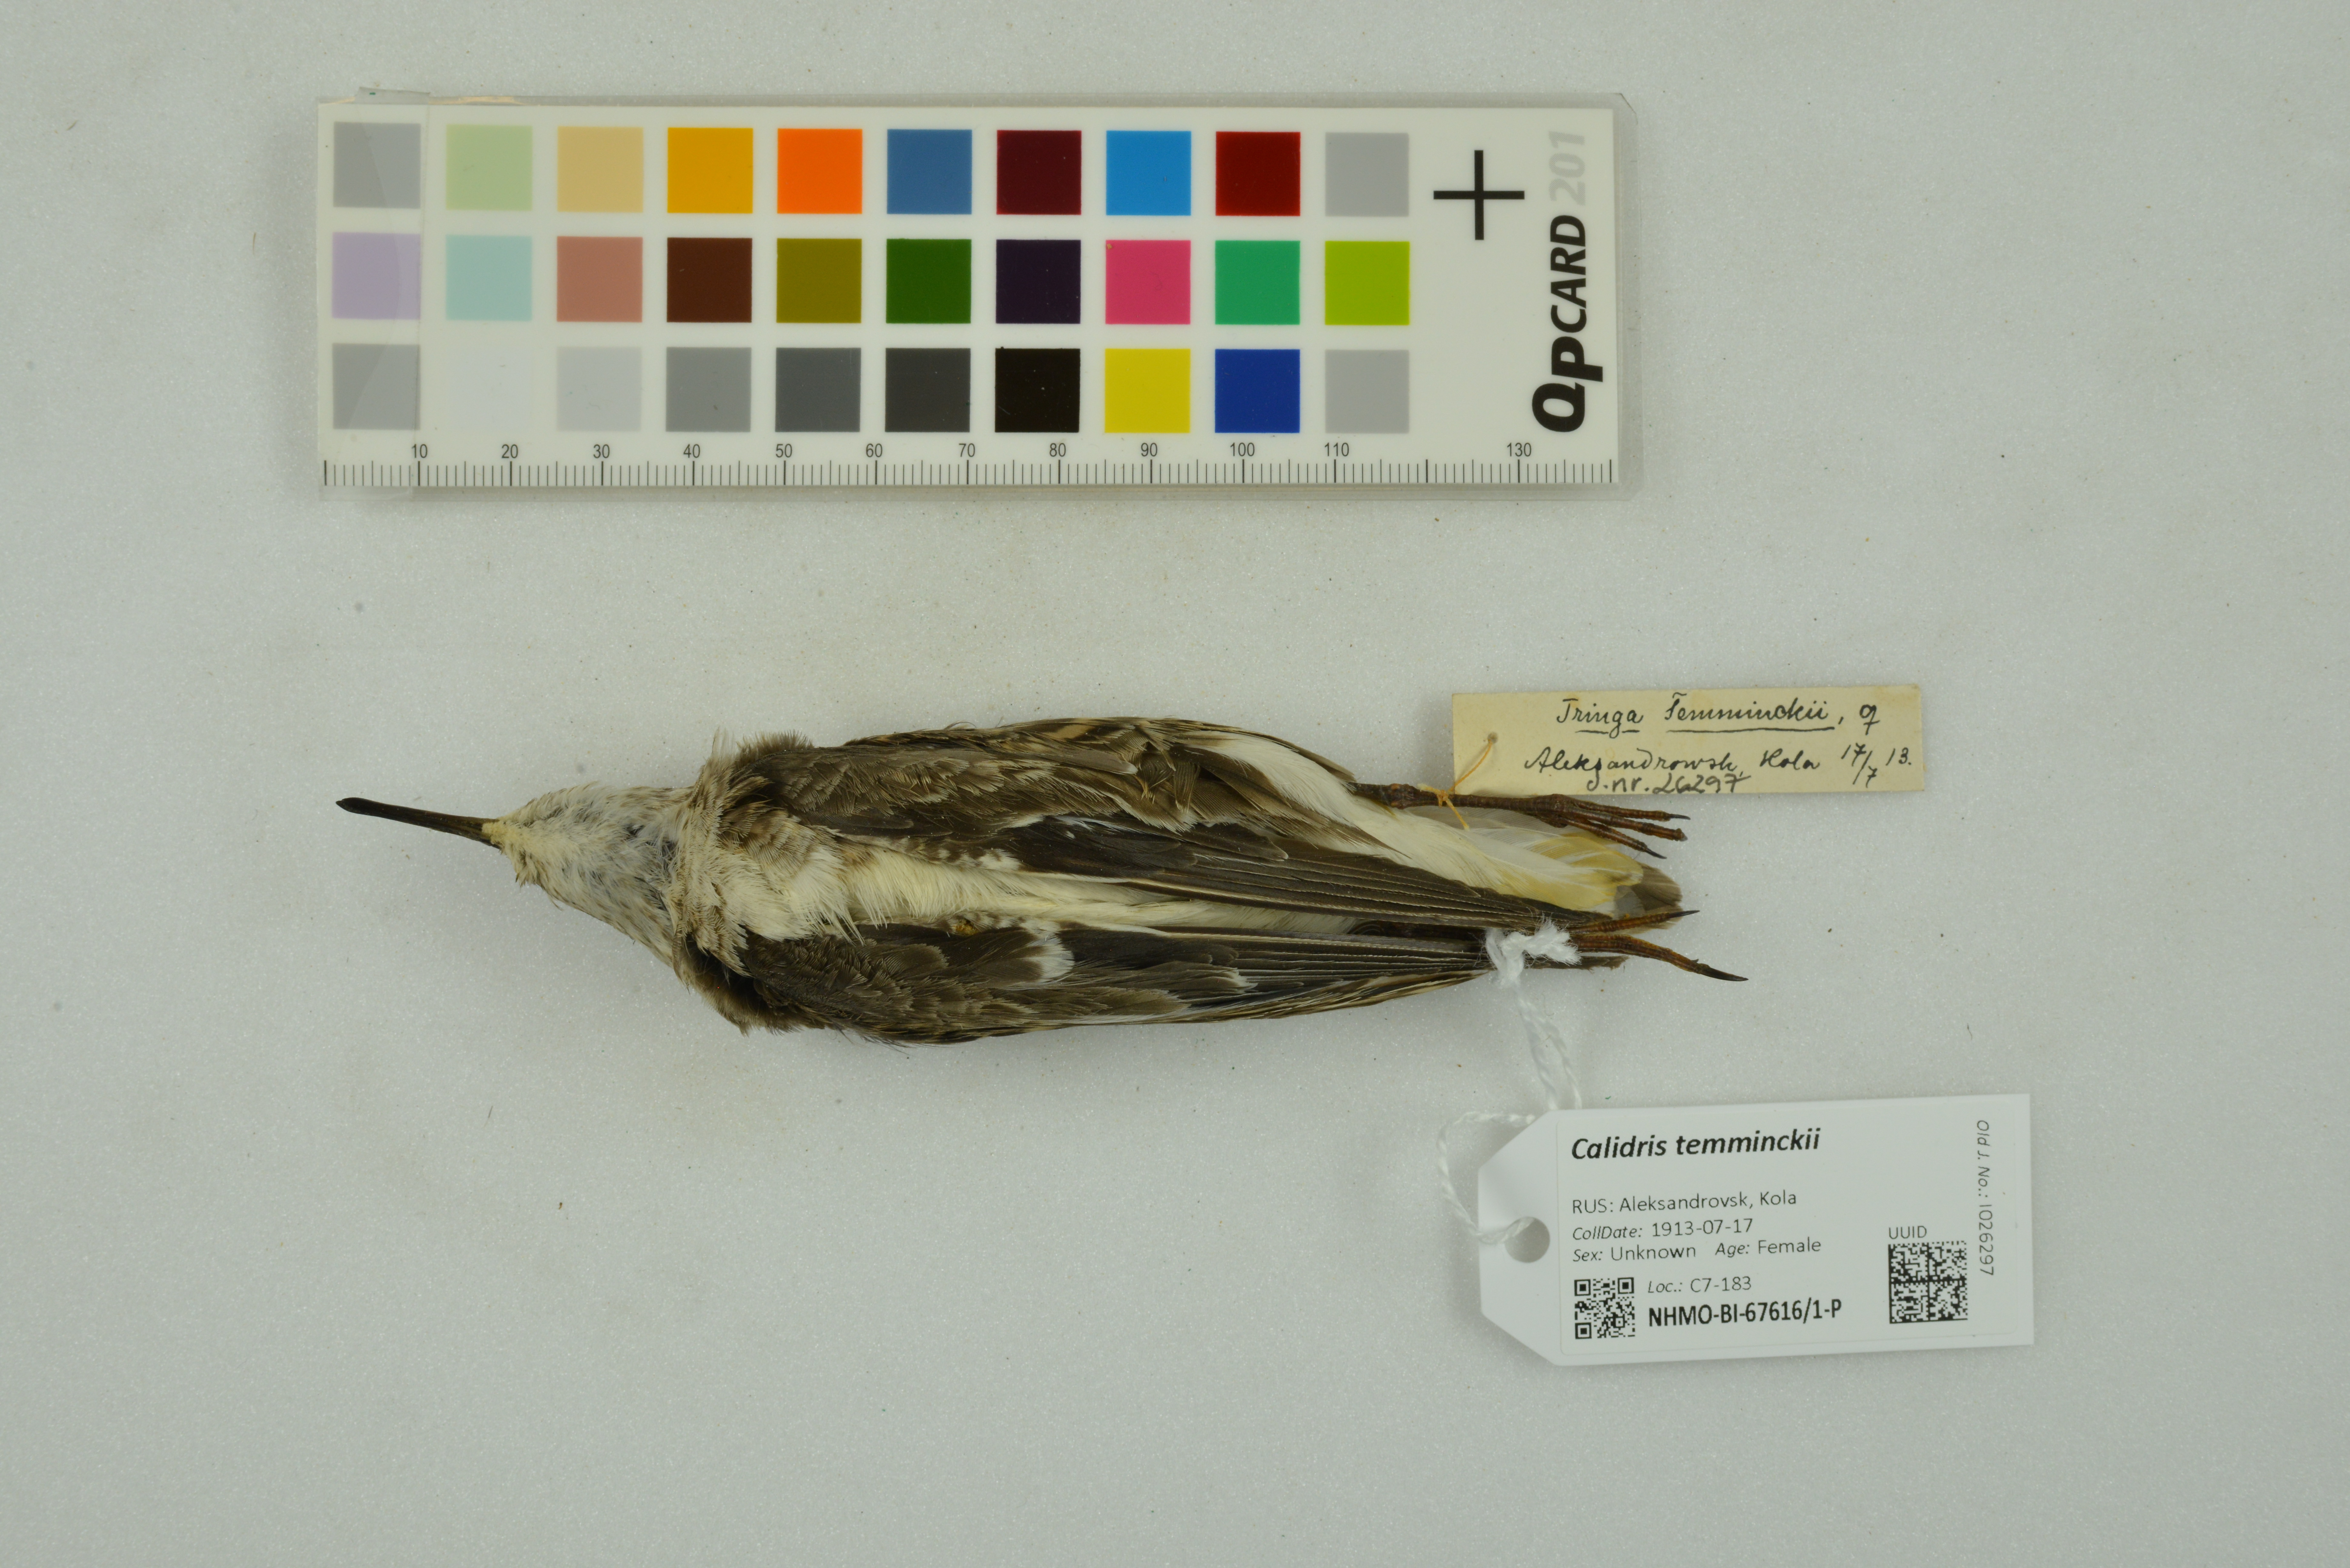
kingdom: Animalia
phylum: Chordata
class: Aves
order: Charadriiformes
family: Scolopacidae
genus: Calidris
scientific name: Calidris temminckii
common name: Temminck's stint
